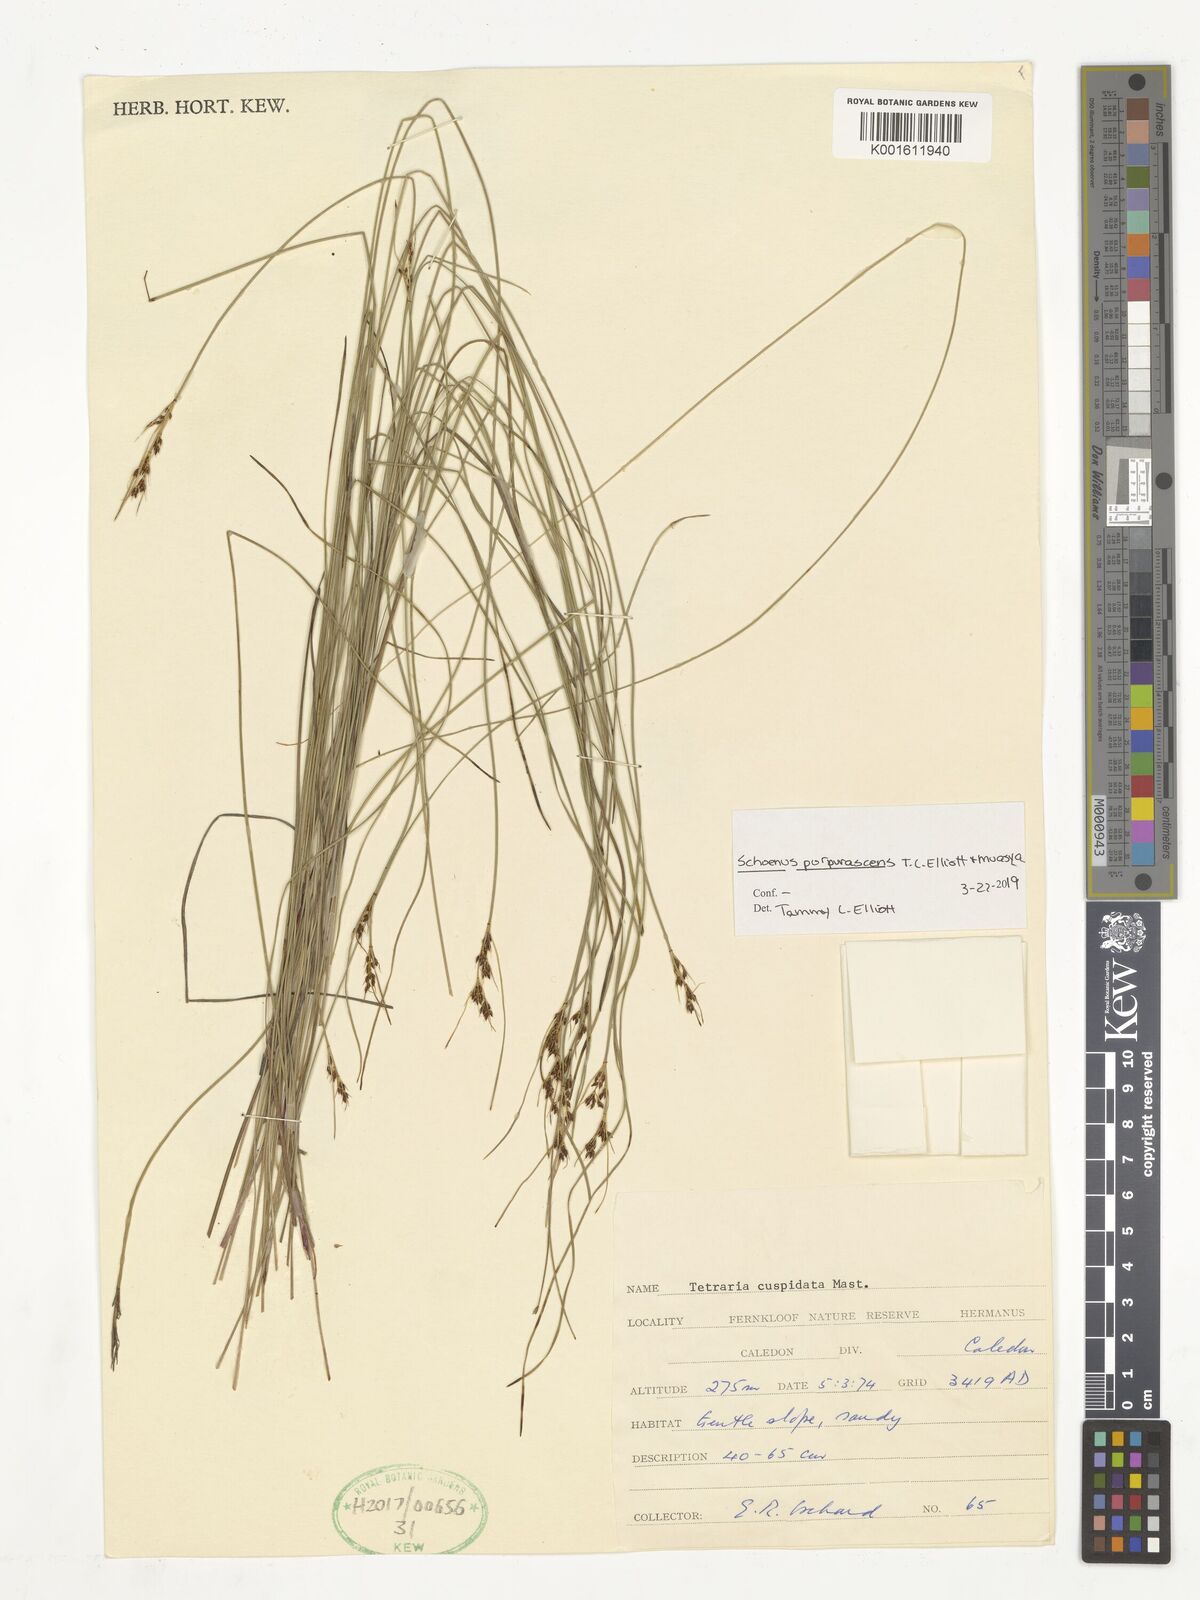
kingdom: Plantae
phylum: Tracheophyta
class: Liliopsida
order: Poales
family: Cyperaceae
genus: Schoenus
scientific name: Schoenus purpurascens
